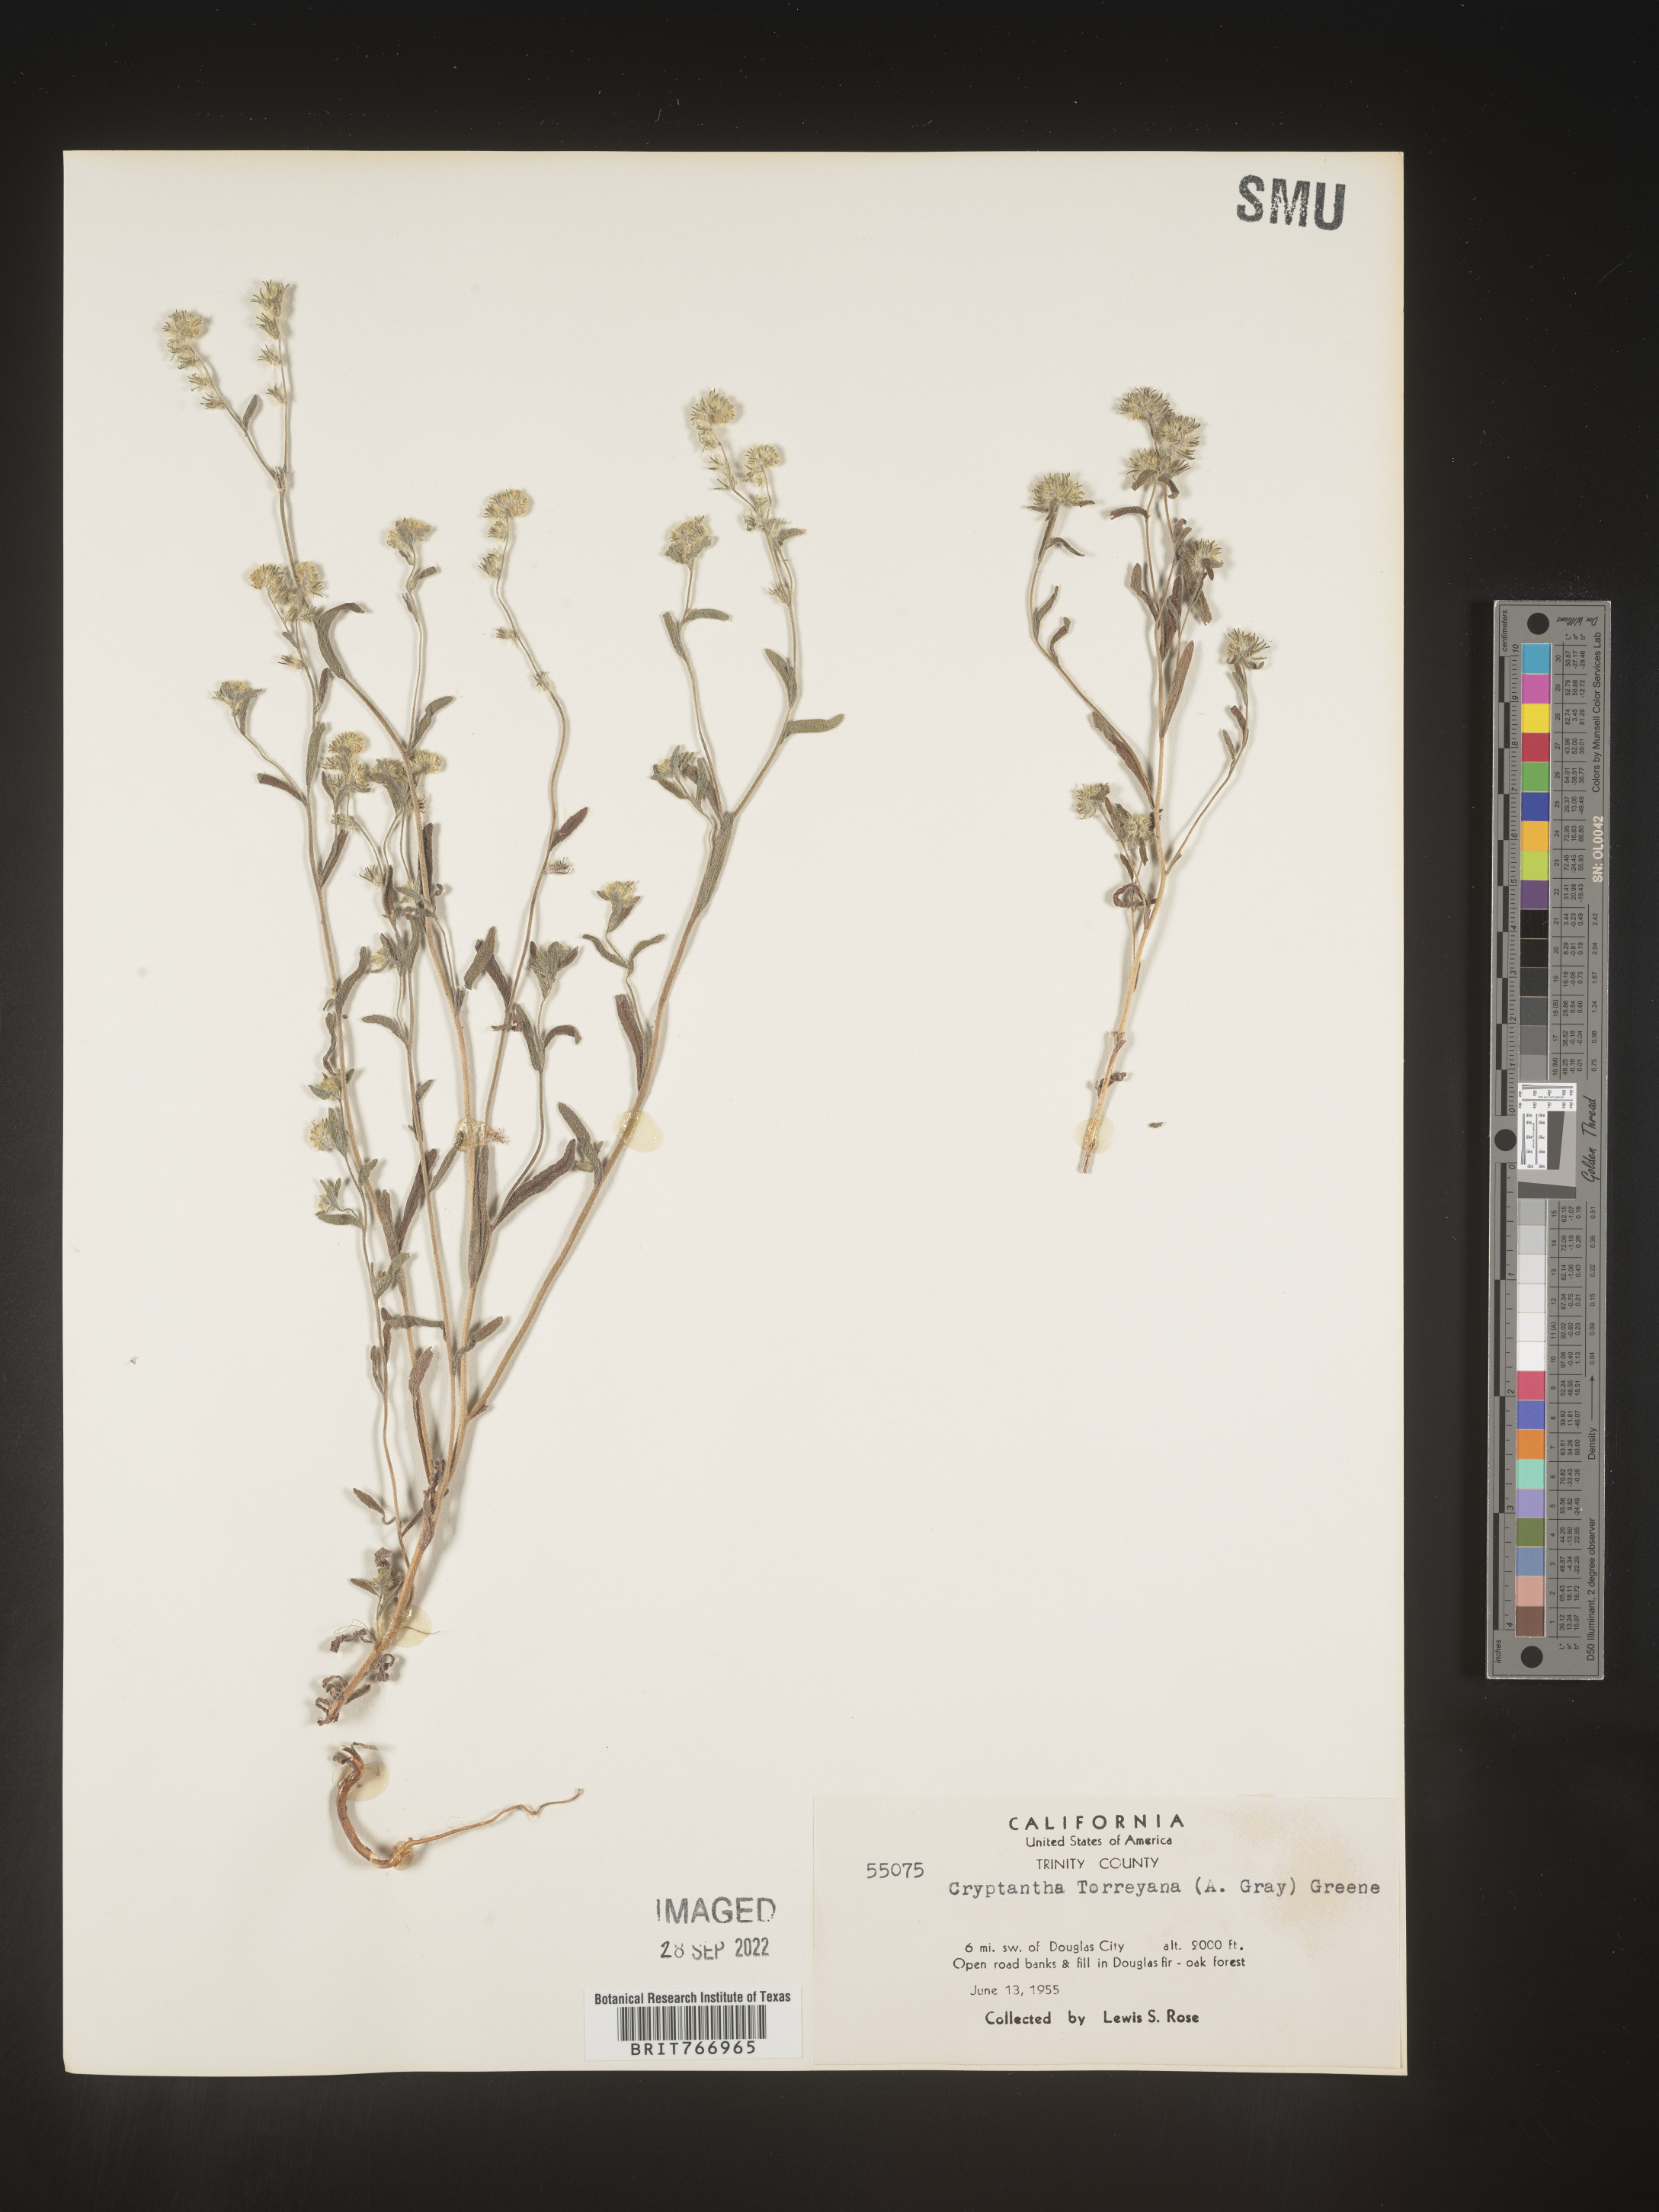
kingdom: Plantae
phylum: Tracheophyta
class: Magnoliopsida
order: Boraginales
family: Boraginaceae
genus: Cryptantha
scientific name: Cryptantha
